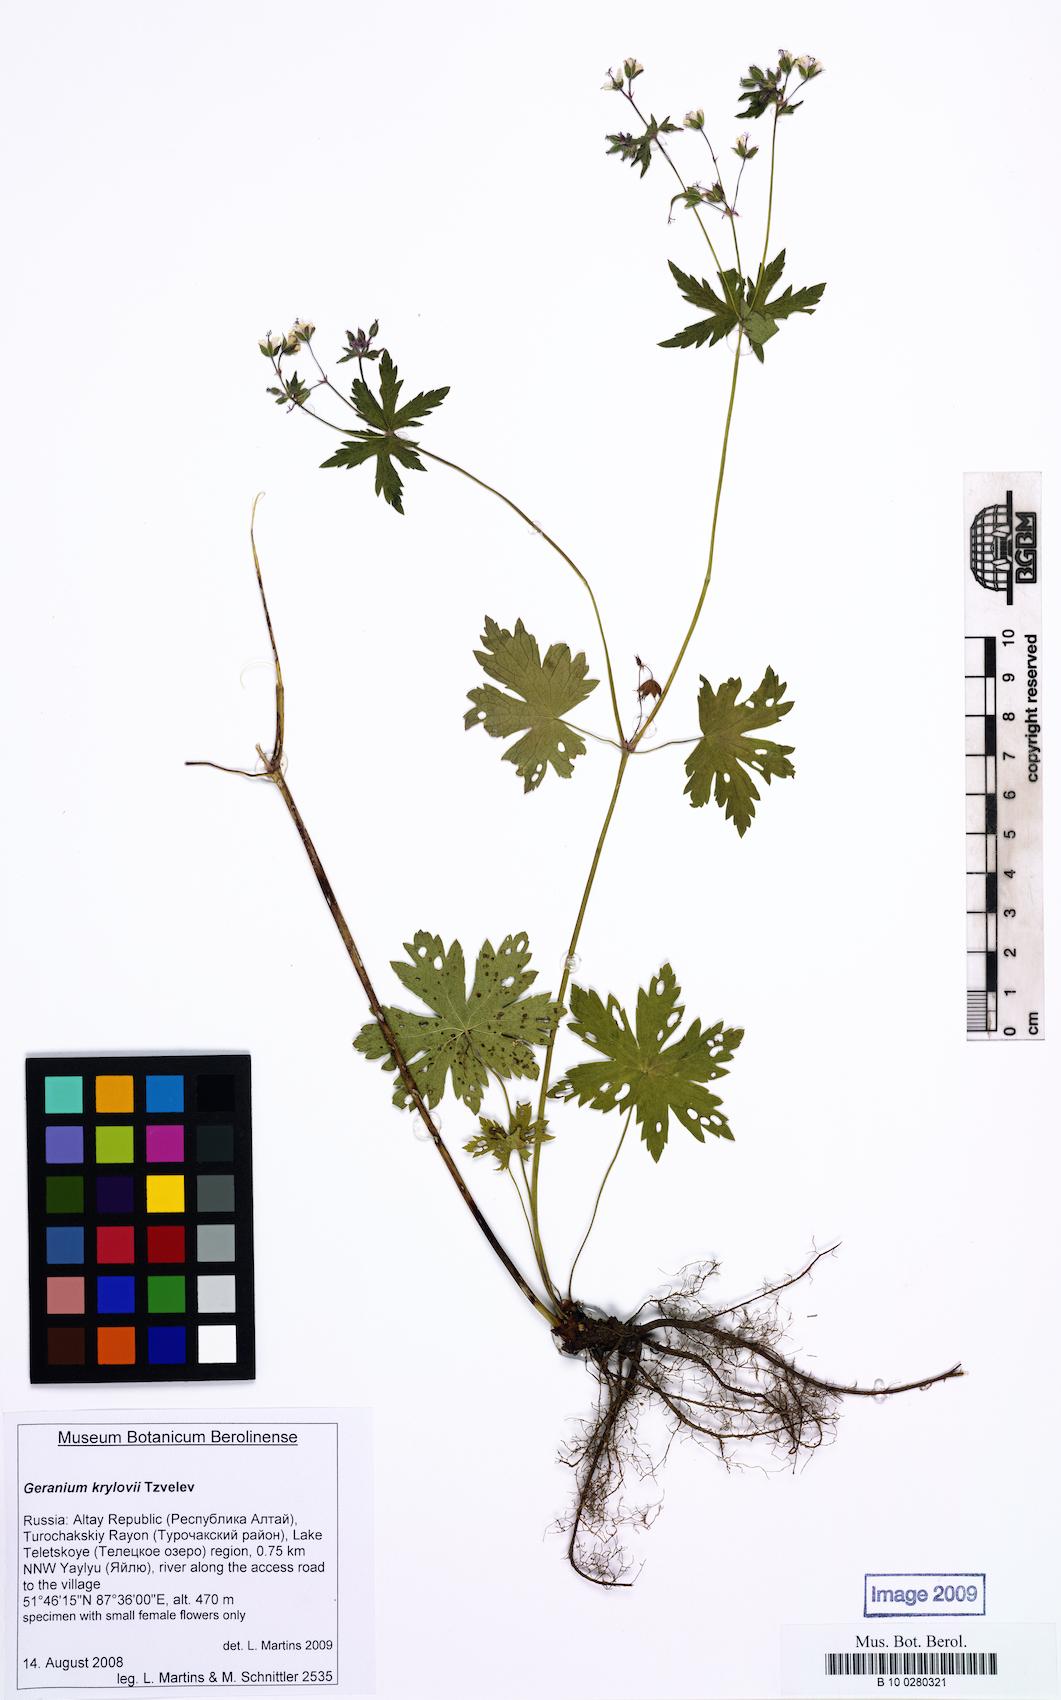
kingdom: Plantae
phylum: Tracheophyta
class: Magnoliopsida
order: Geraniales
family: Geraniaceae
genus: Geranium
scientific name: Geranium
